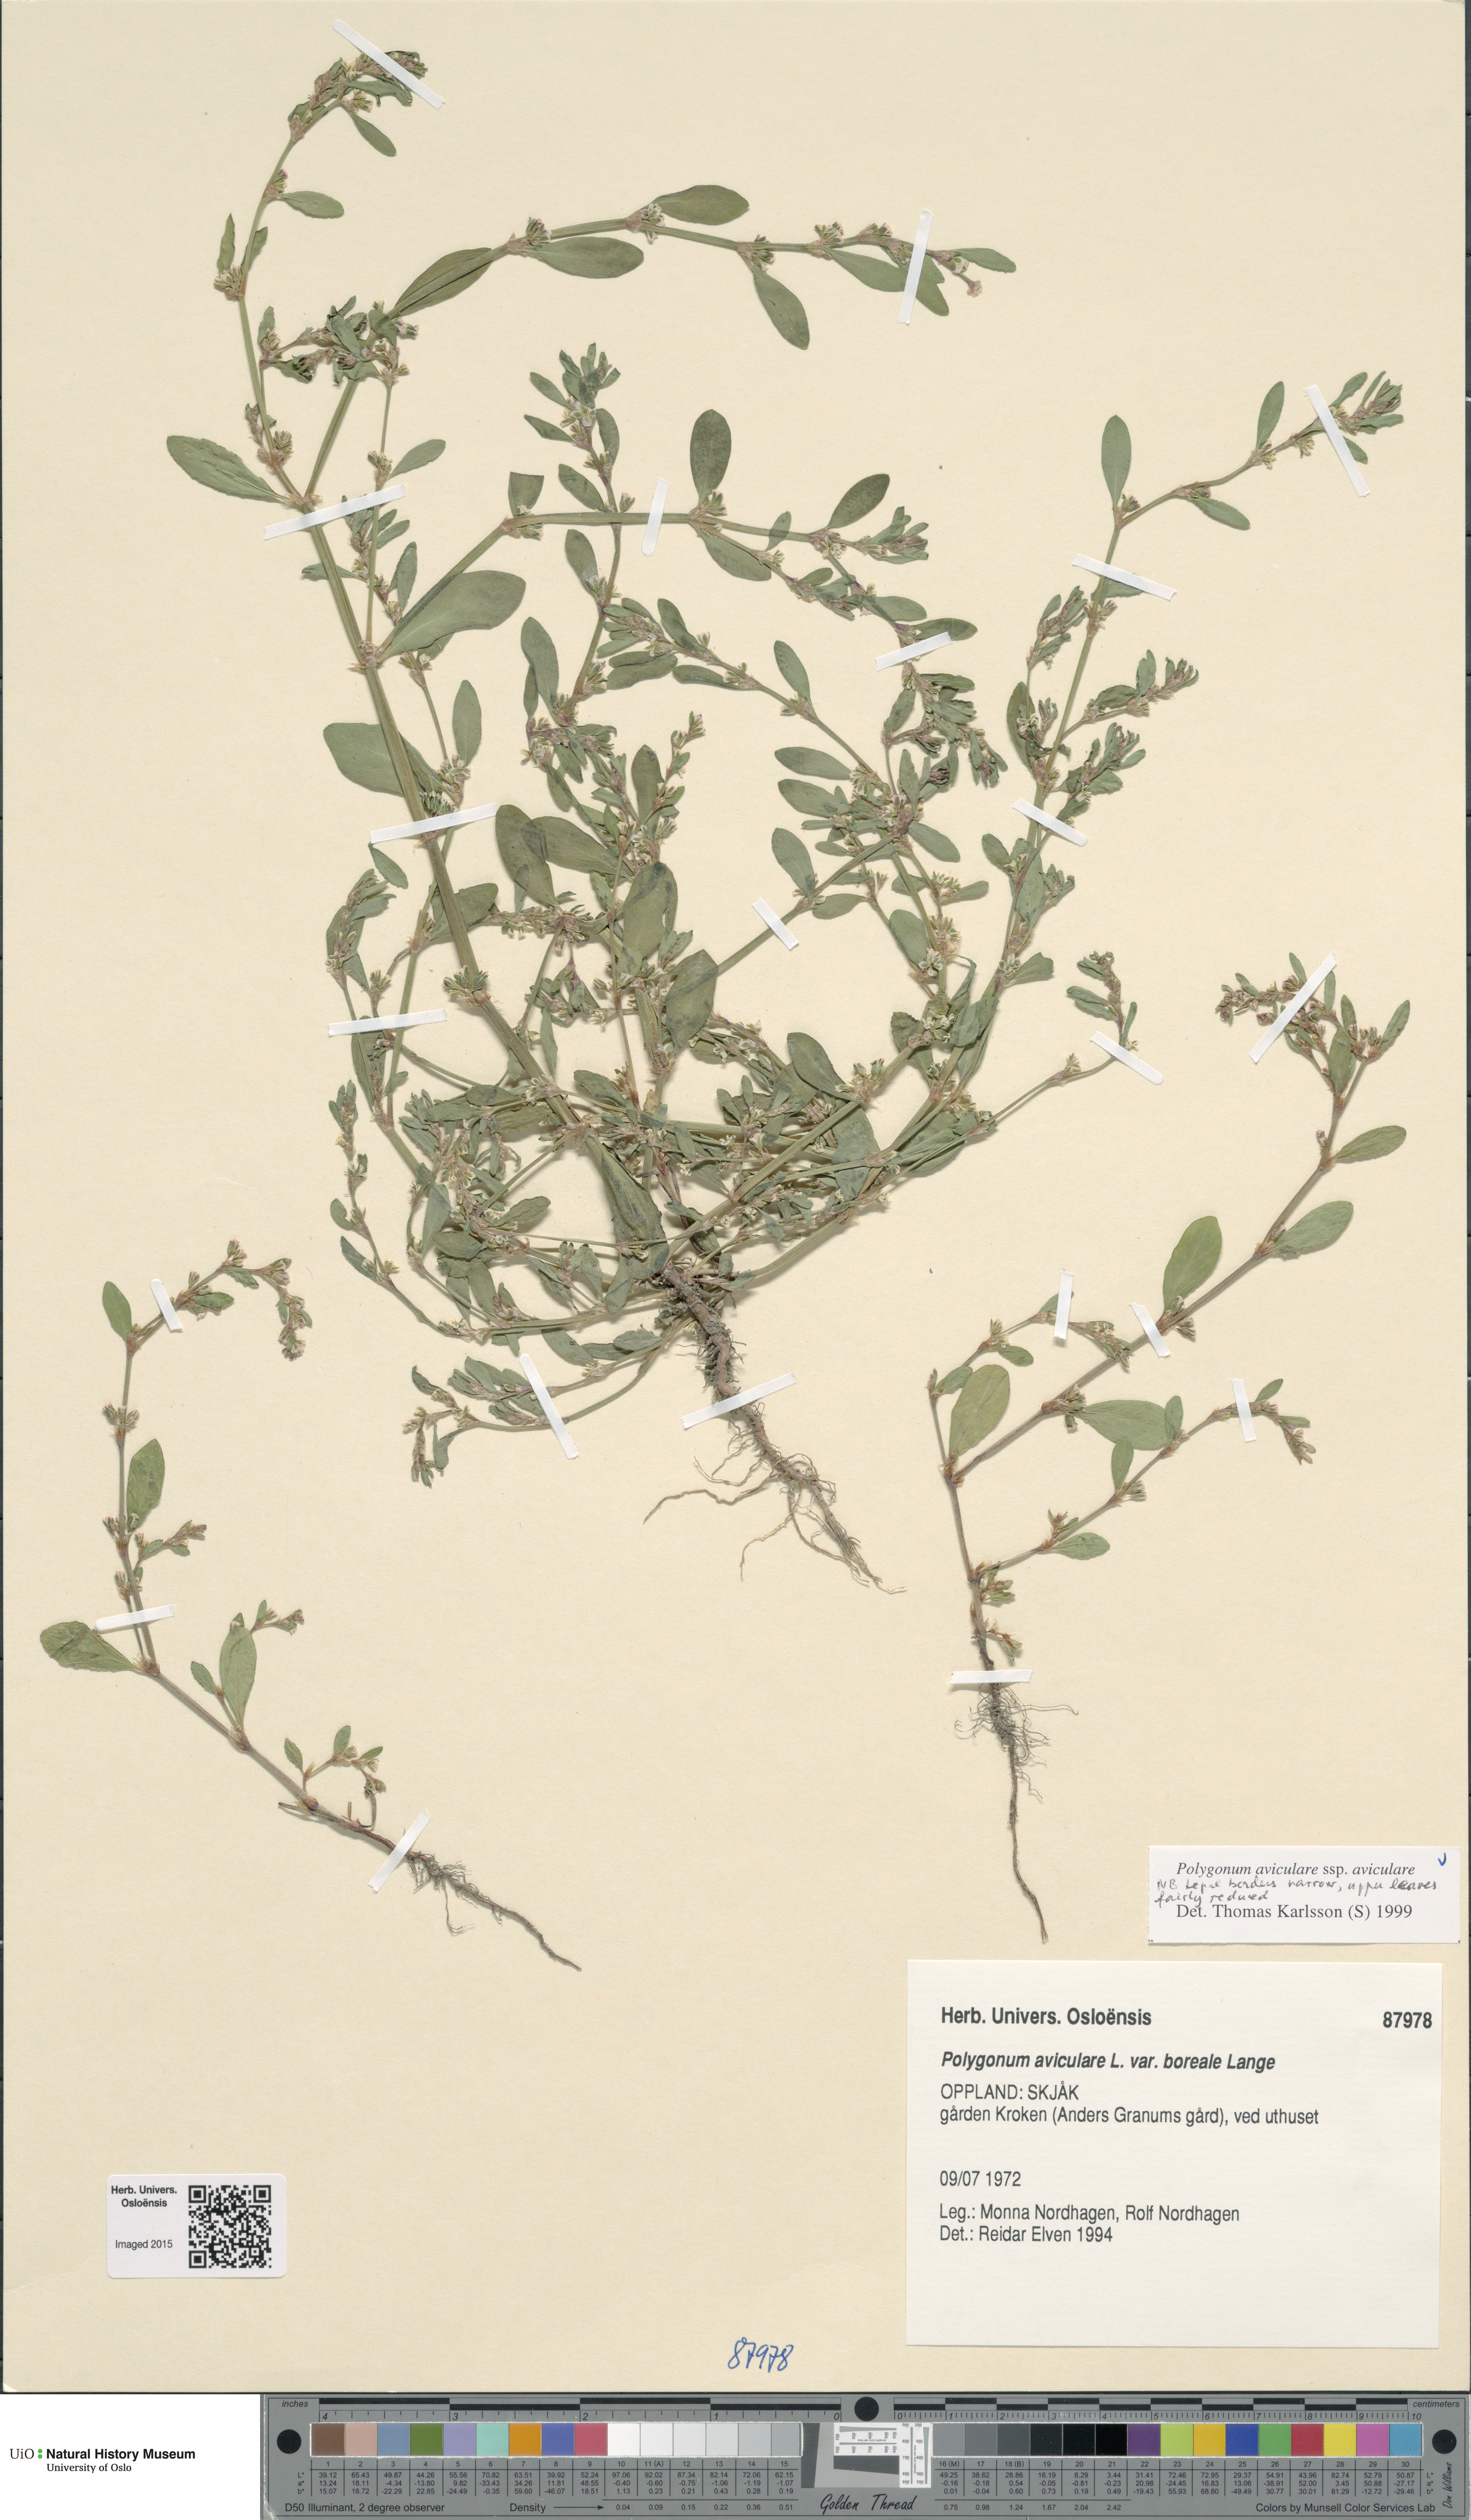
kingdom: Plantae
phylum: Tracheophyta
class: Magnoliopsida
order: Caryophyllales
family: Polygonaceae
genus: Polygonum
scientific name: Polygonum aviculare
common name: Prostrate knotweed
